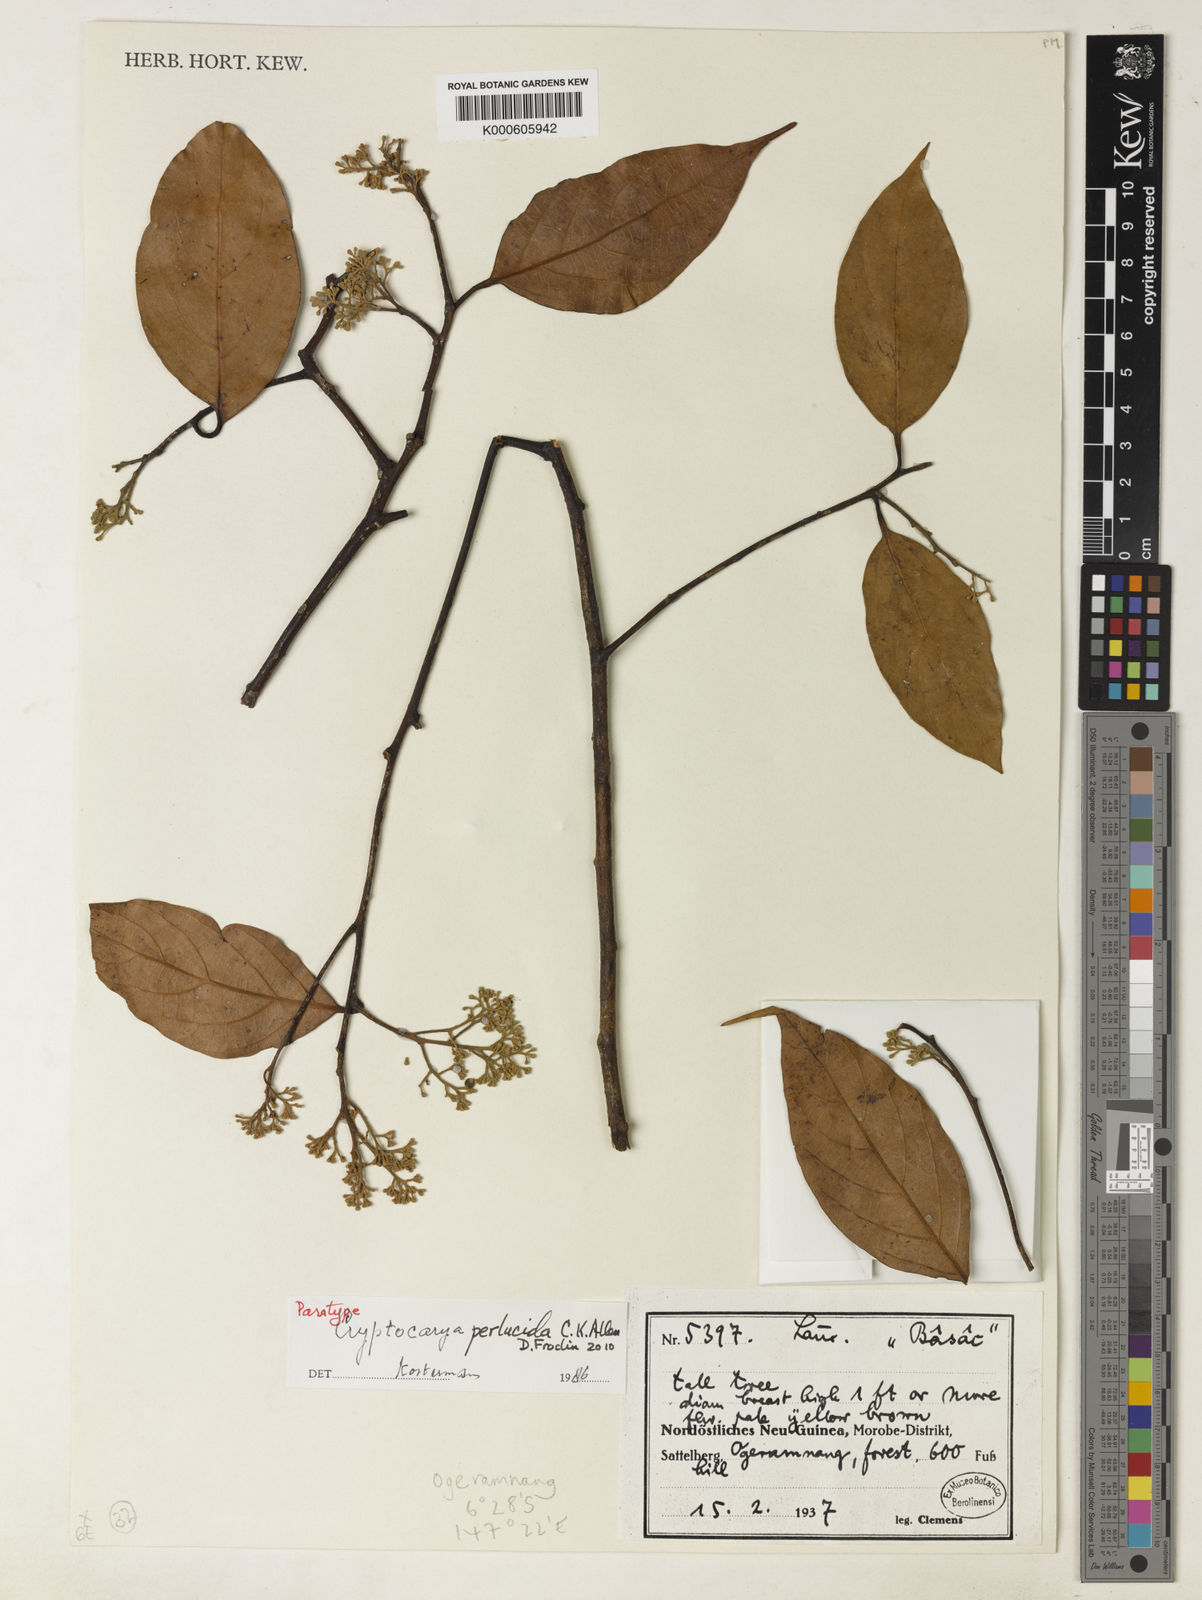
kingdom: Plantae
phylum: Tracheophyta
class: Magnoliopsida
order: Laurales
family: Lauraceae
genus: Cryptocarya
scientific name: Cryptocarya perlucida
